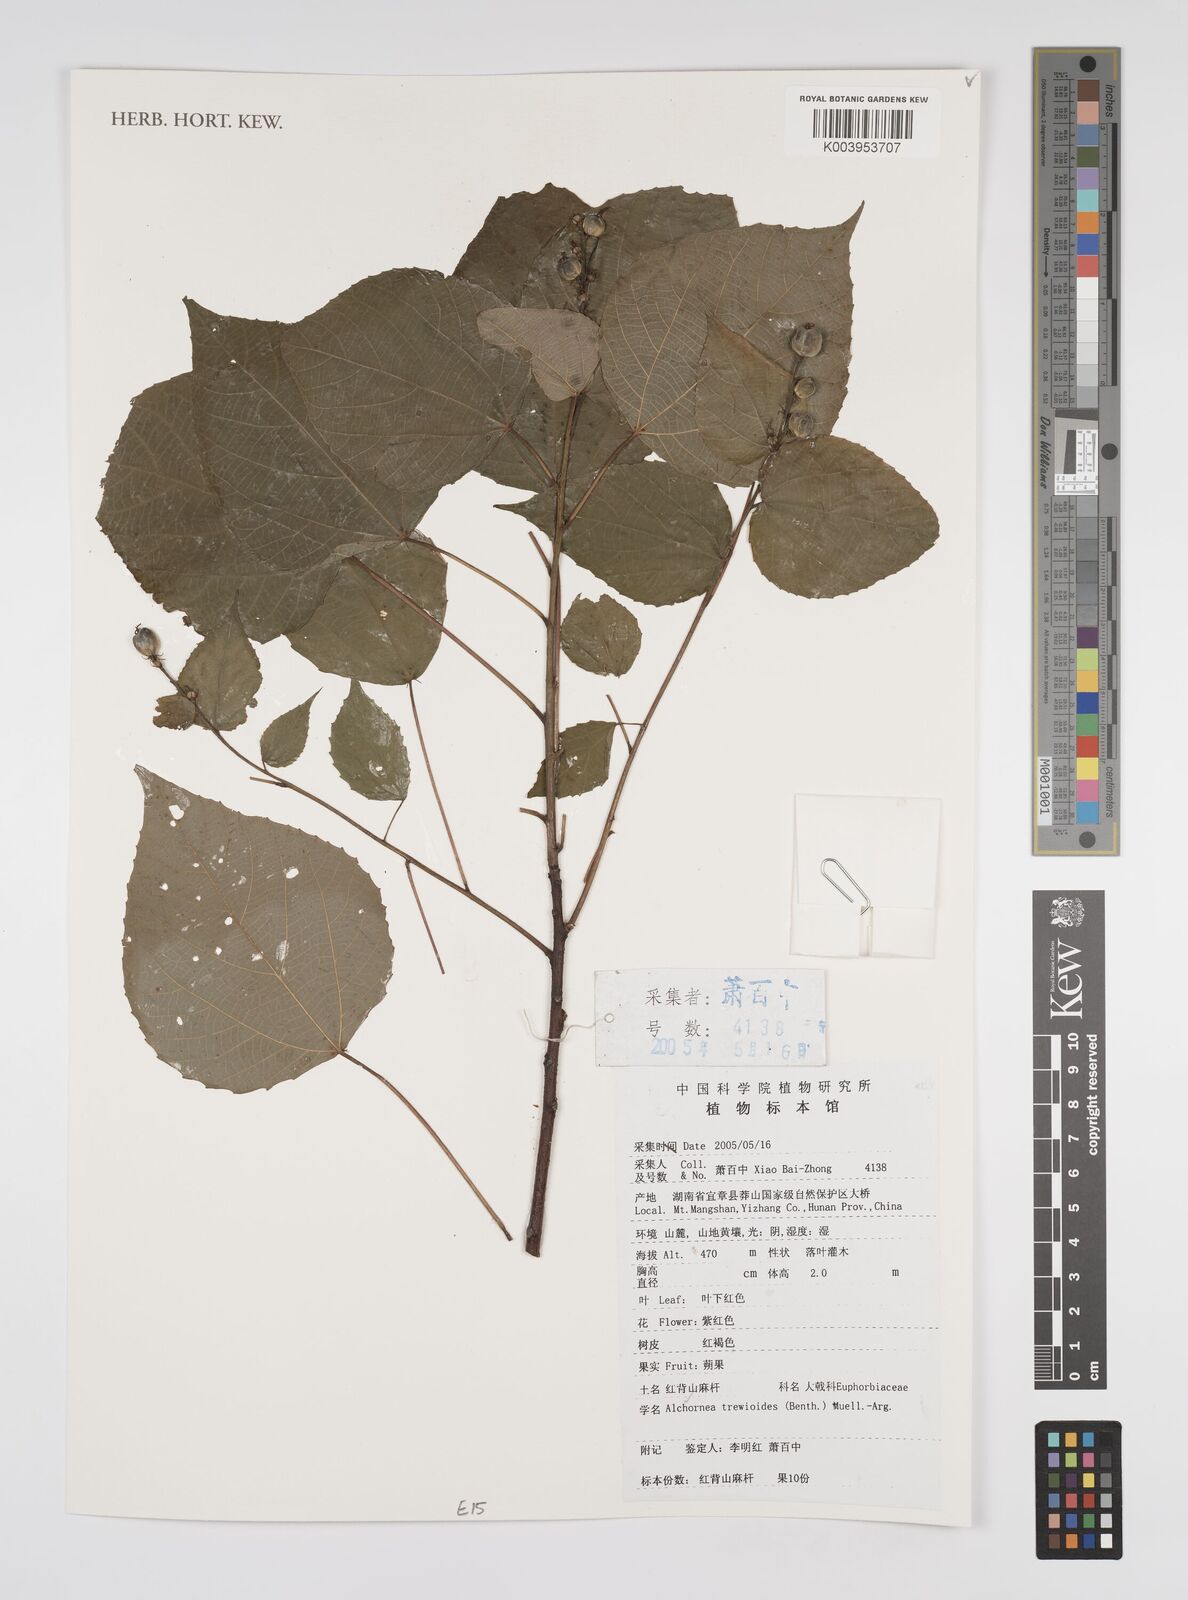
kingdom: Plantae
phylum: Tracheophyta
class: Magnoliopsida
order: Malpighiales
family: Euphorbiaceae
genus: Alchornea
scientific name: Alchornea trewioides
